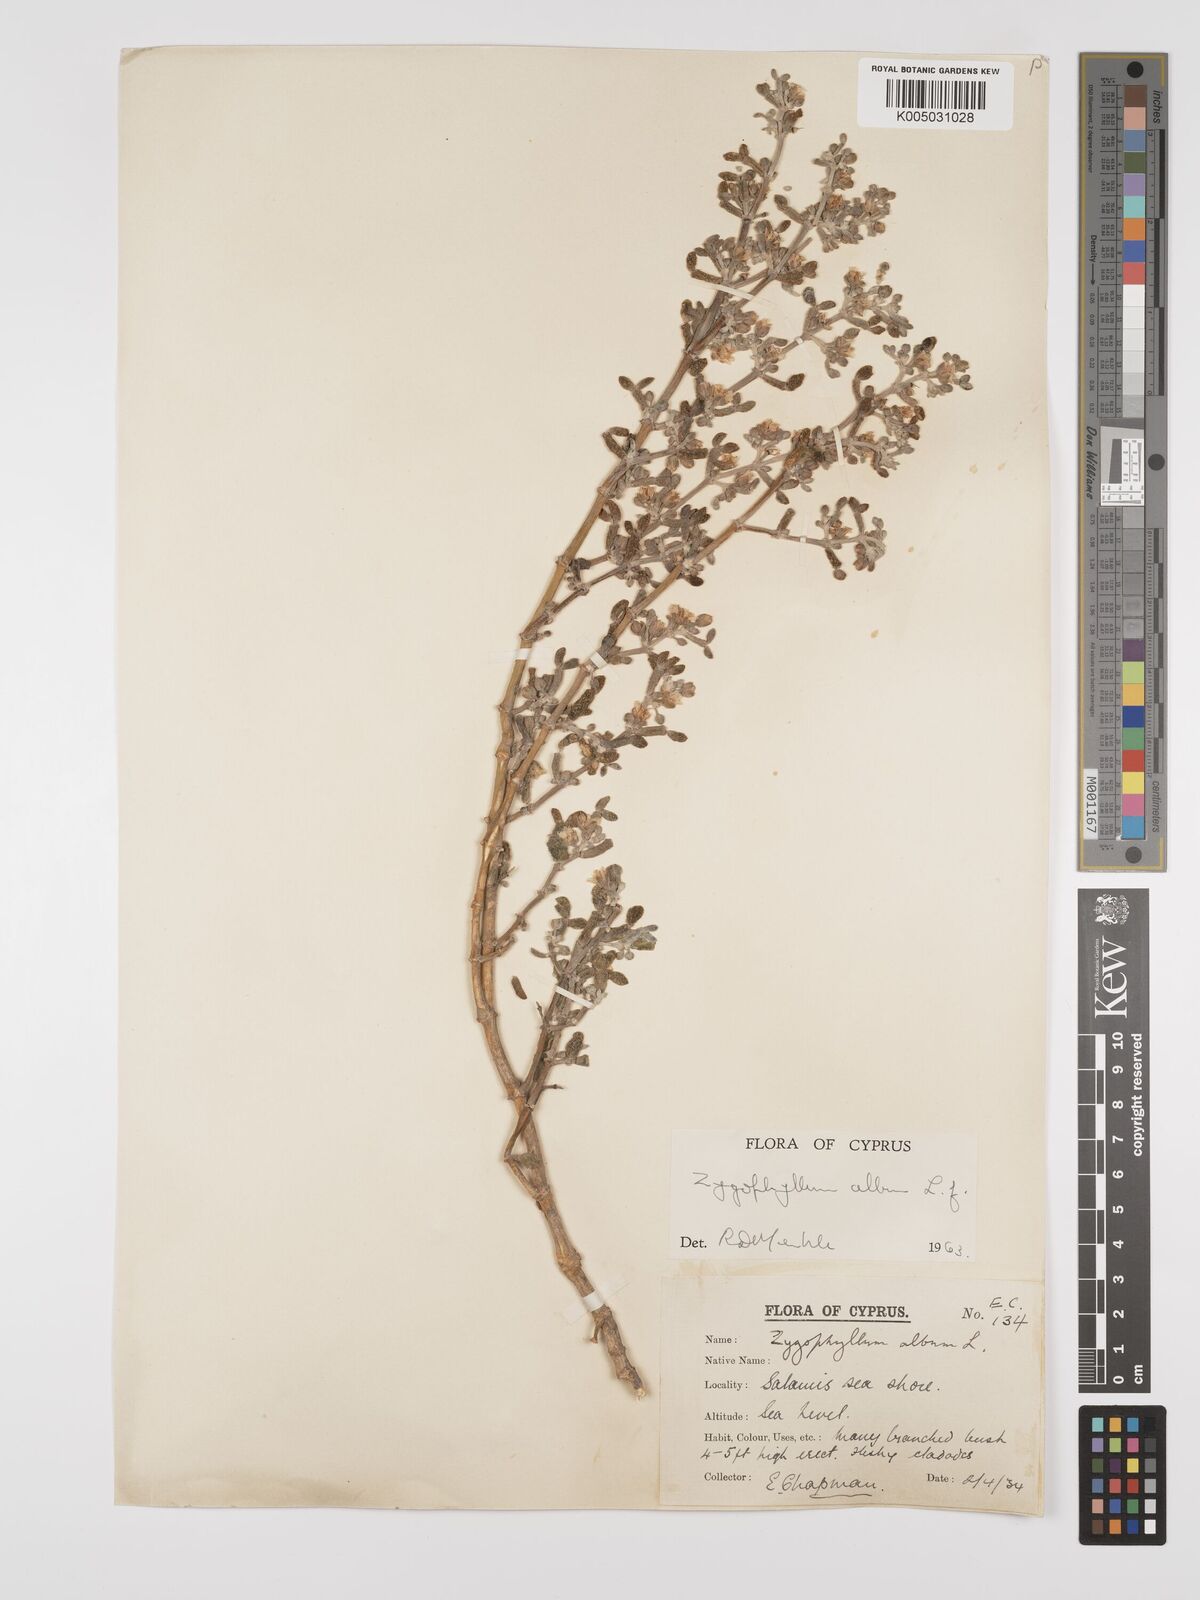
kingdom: Plantae
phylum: Tracheophyta
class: Magnoliopsida
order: Zygophyllales
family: Zygophyllaceae
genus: Zygophyllum
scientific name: Zygophyllum
